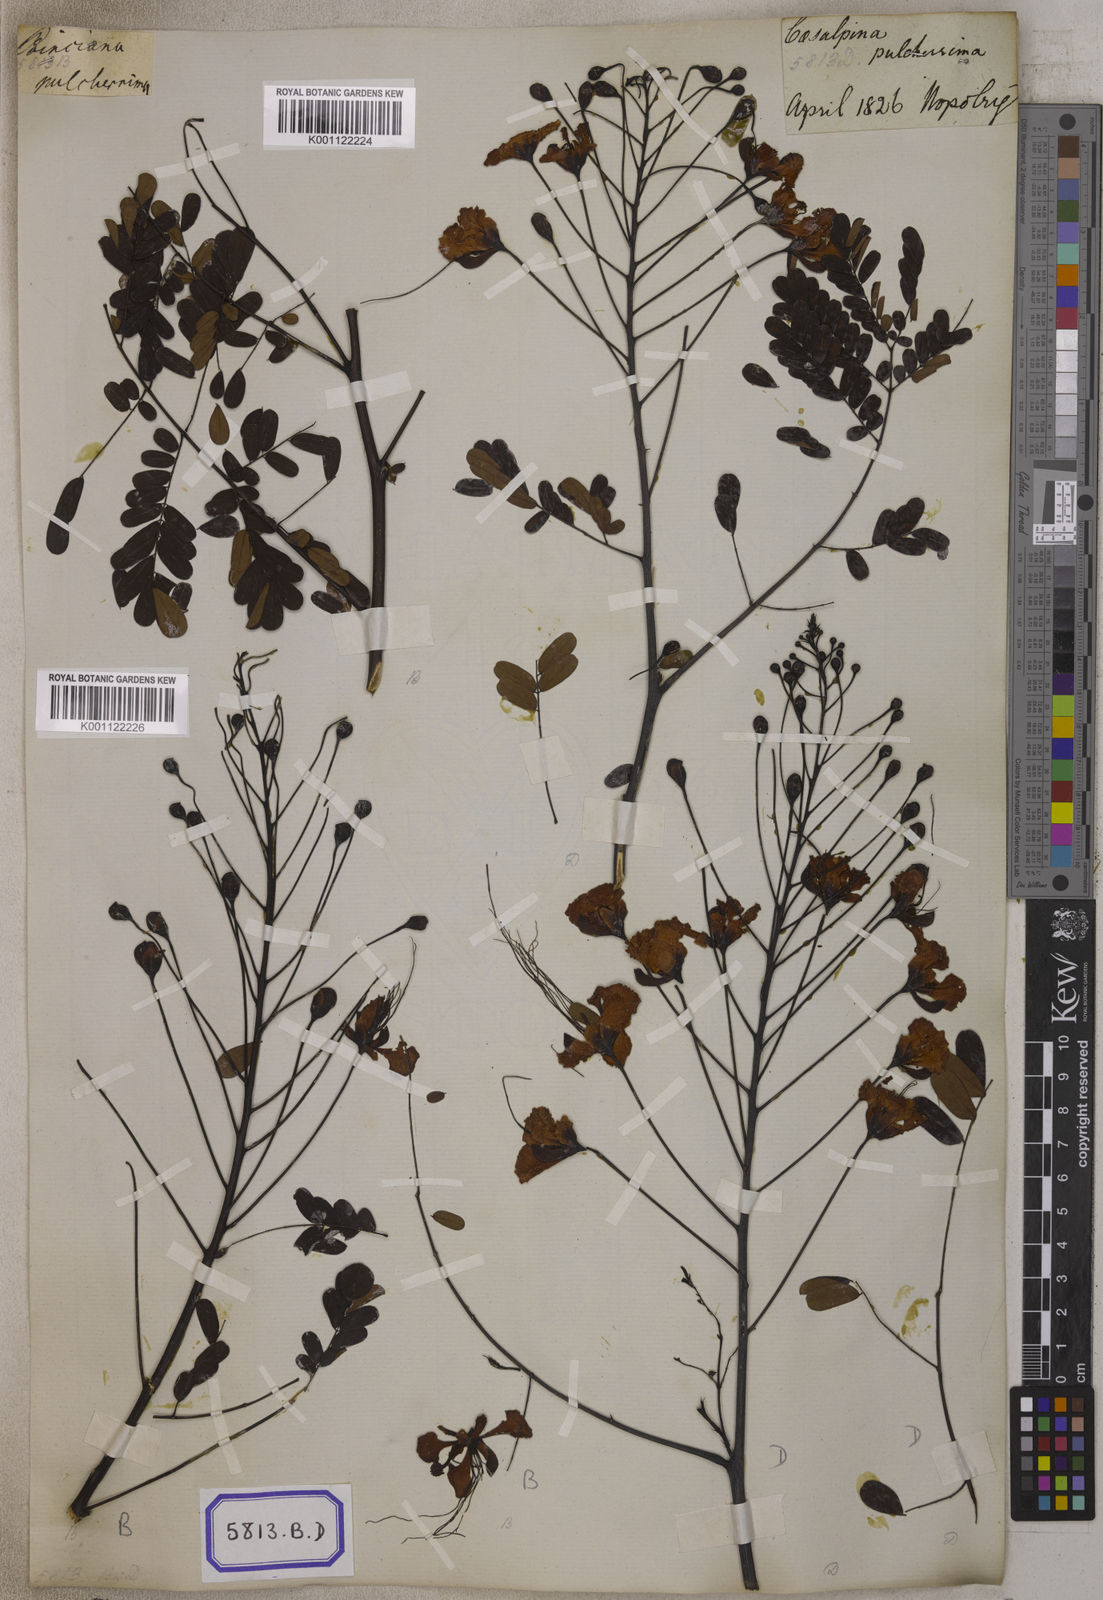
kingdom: Plantae
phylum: Tracheophyta
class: Magnoliopsida
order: Fabales
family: Fabaceae
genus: Caesalpinia
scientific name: Caesalpinia pulcherrima
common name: Pride-of-barbados
